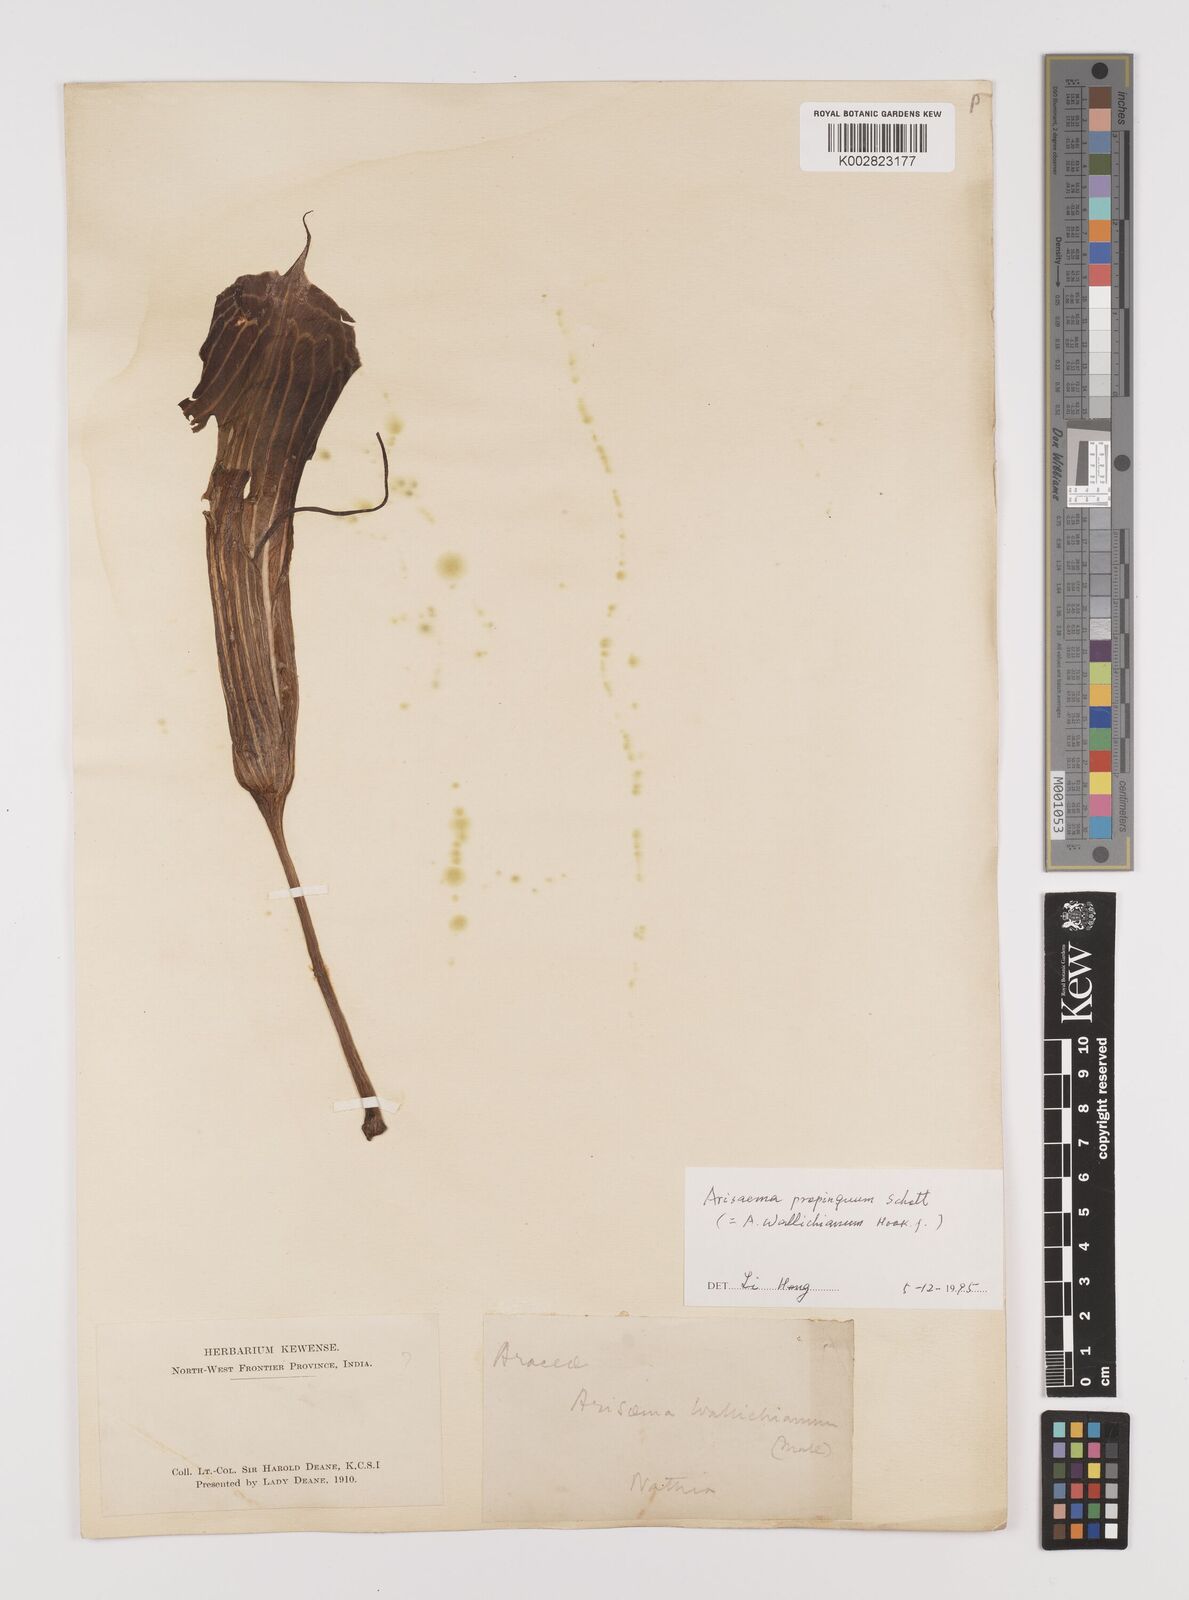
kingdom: Plantae
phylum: Tracheophyta
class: Liliopsida
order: Alismatales
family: Araceae
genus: Arisaema
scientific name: Arisaema propinquum
